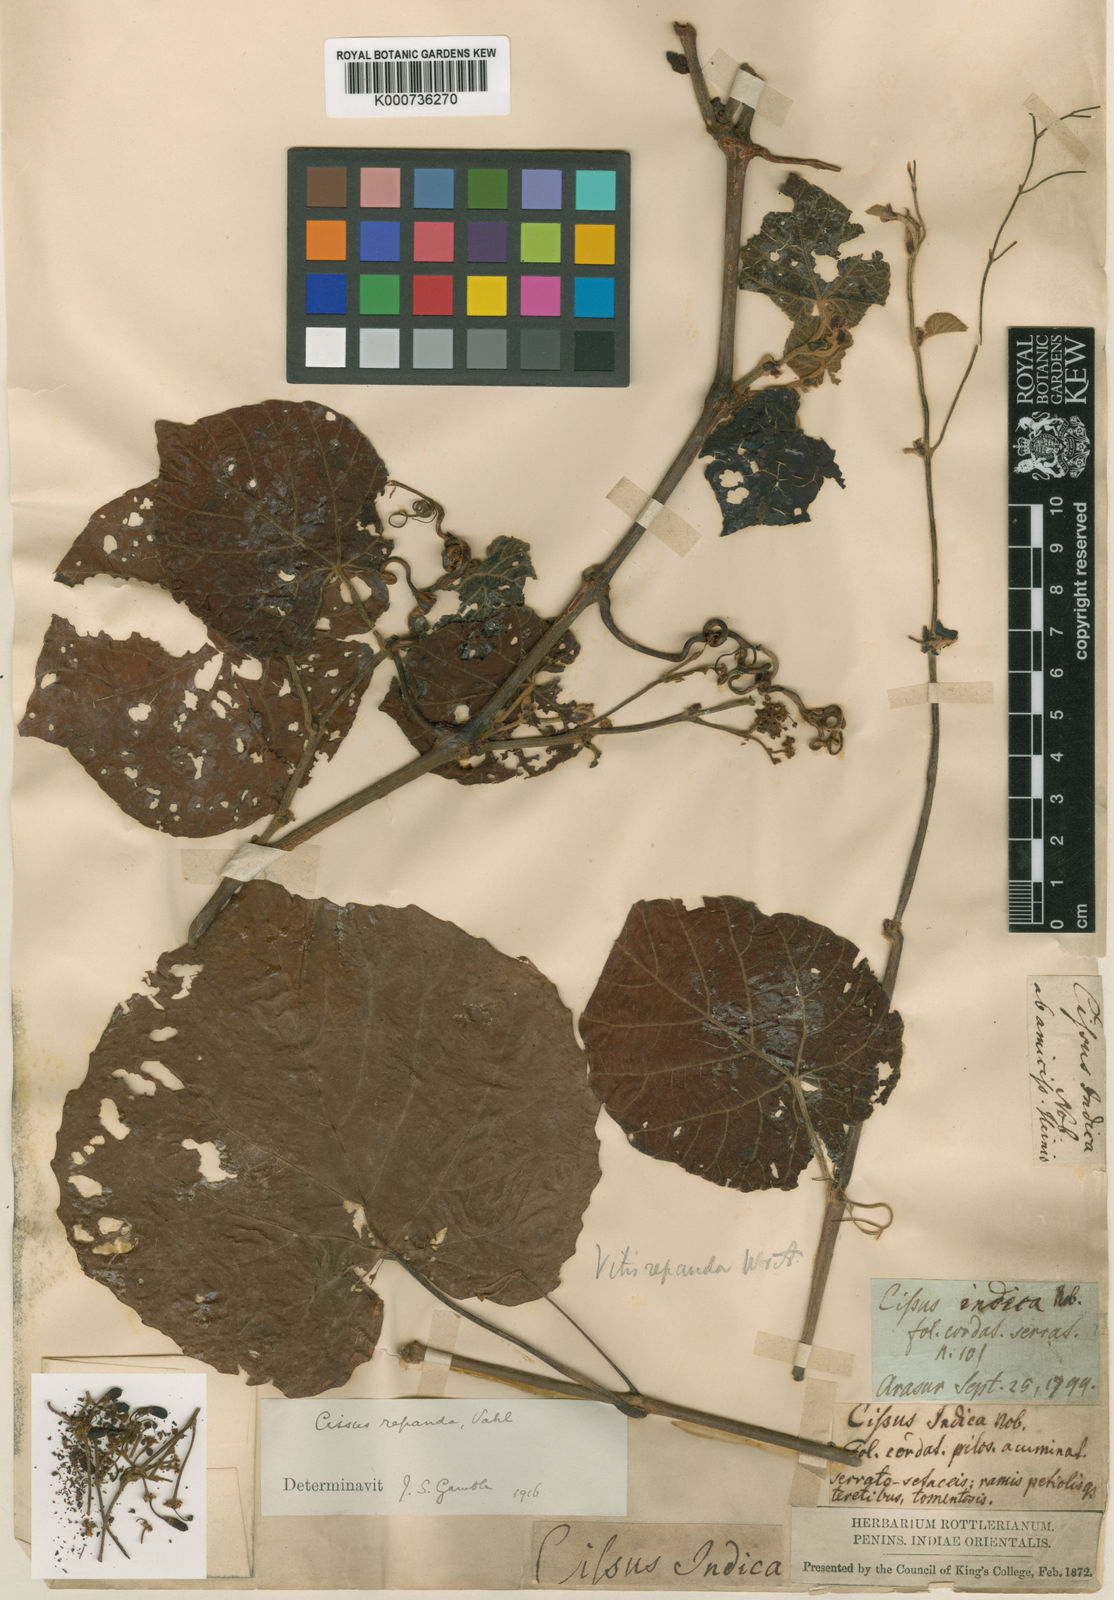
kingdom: Plantae
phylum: Tracheophyta
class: Magnoliopsida
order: Vitales
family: Vitaceae
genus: Cissus
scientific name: Cissus repanda
